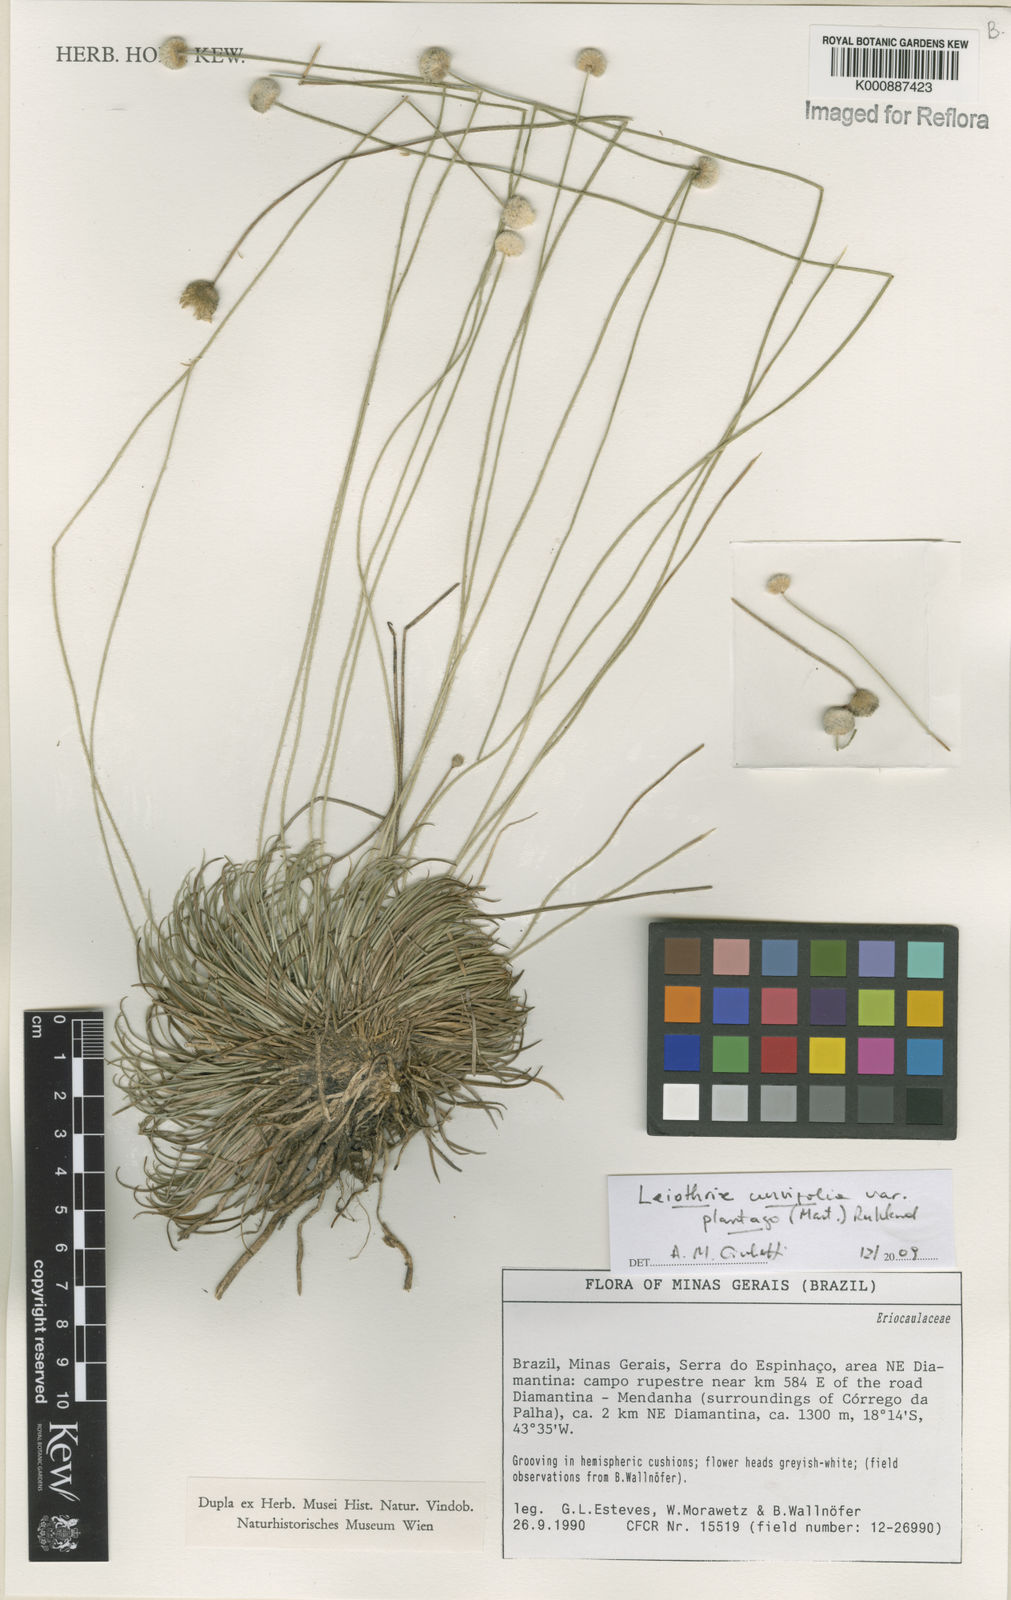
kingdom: Plantae
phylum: Tracheophyta
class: Liliopsida
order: Poales
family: Eriocaulaceae
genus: Leiothrix
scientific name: Leiothrix plantago
